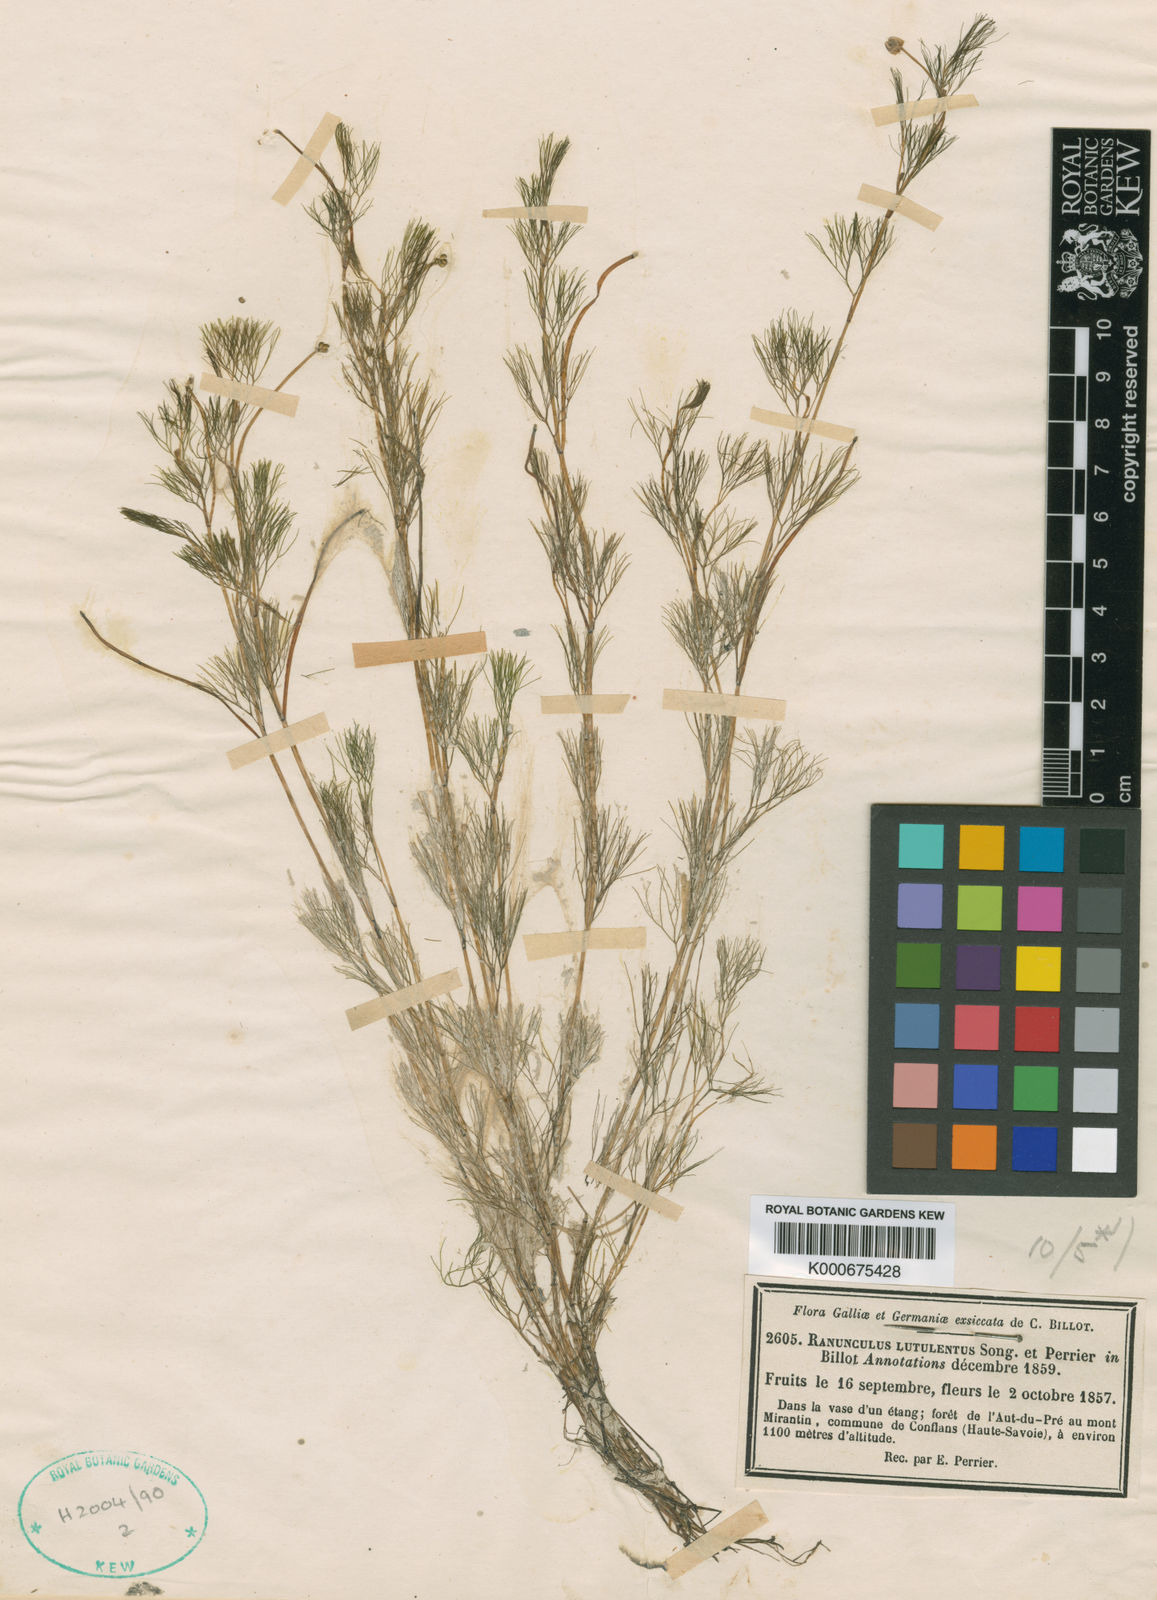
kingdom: Plantae
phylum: Tracheophyta
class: Magnoliopsida
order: Ranunculales
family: Ranunculaceae
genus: Ranunculus
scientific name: Ranunculus
